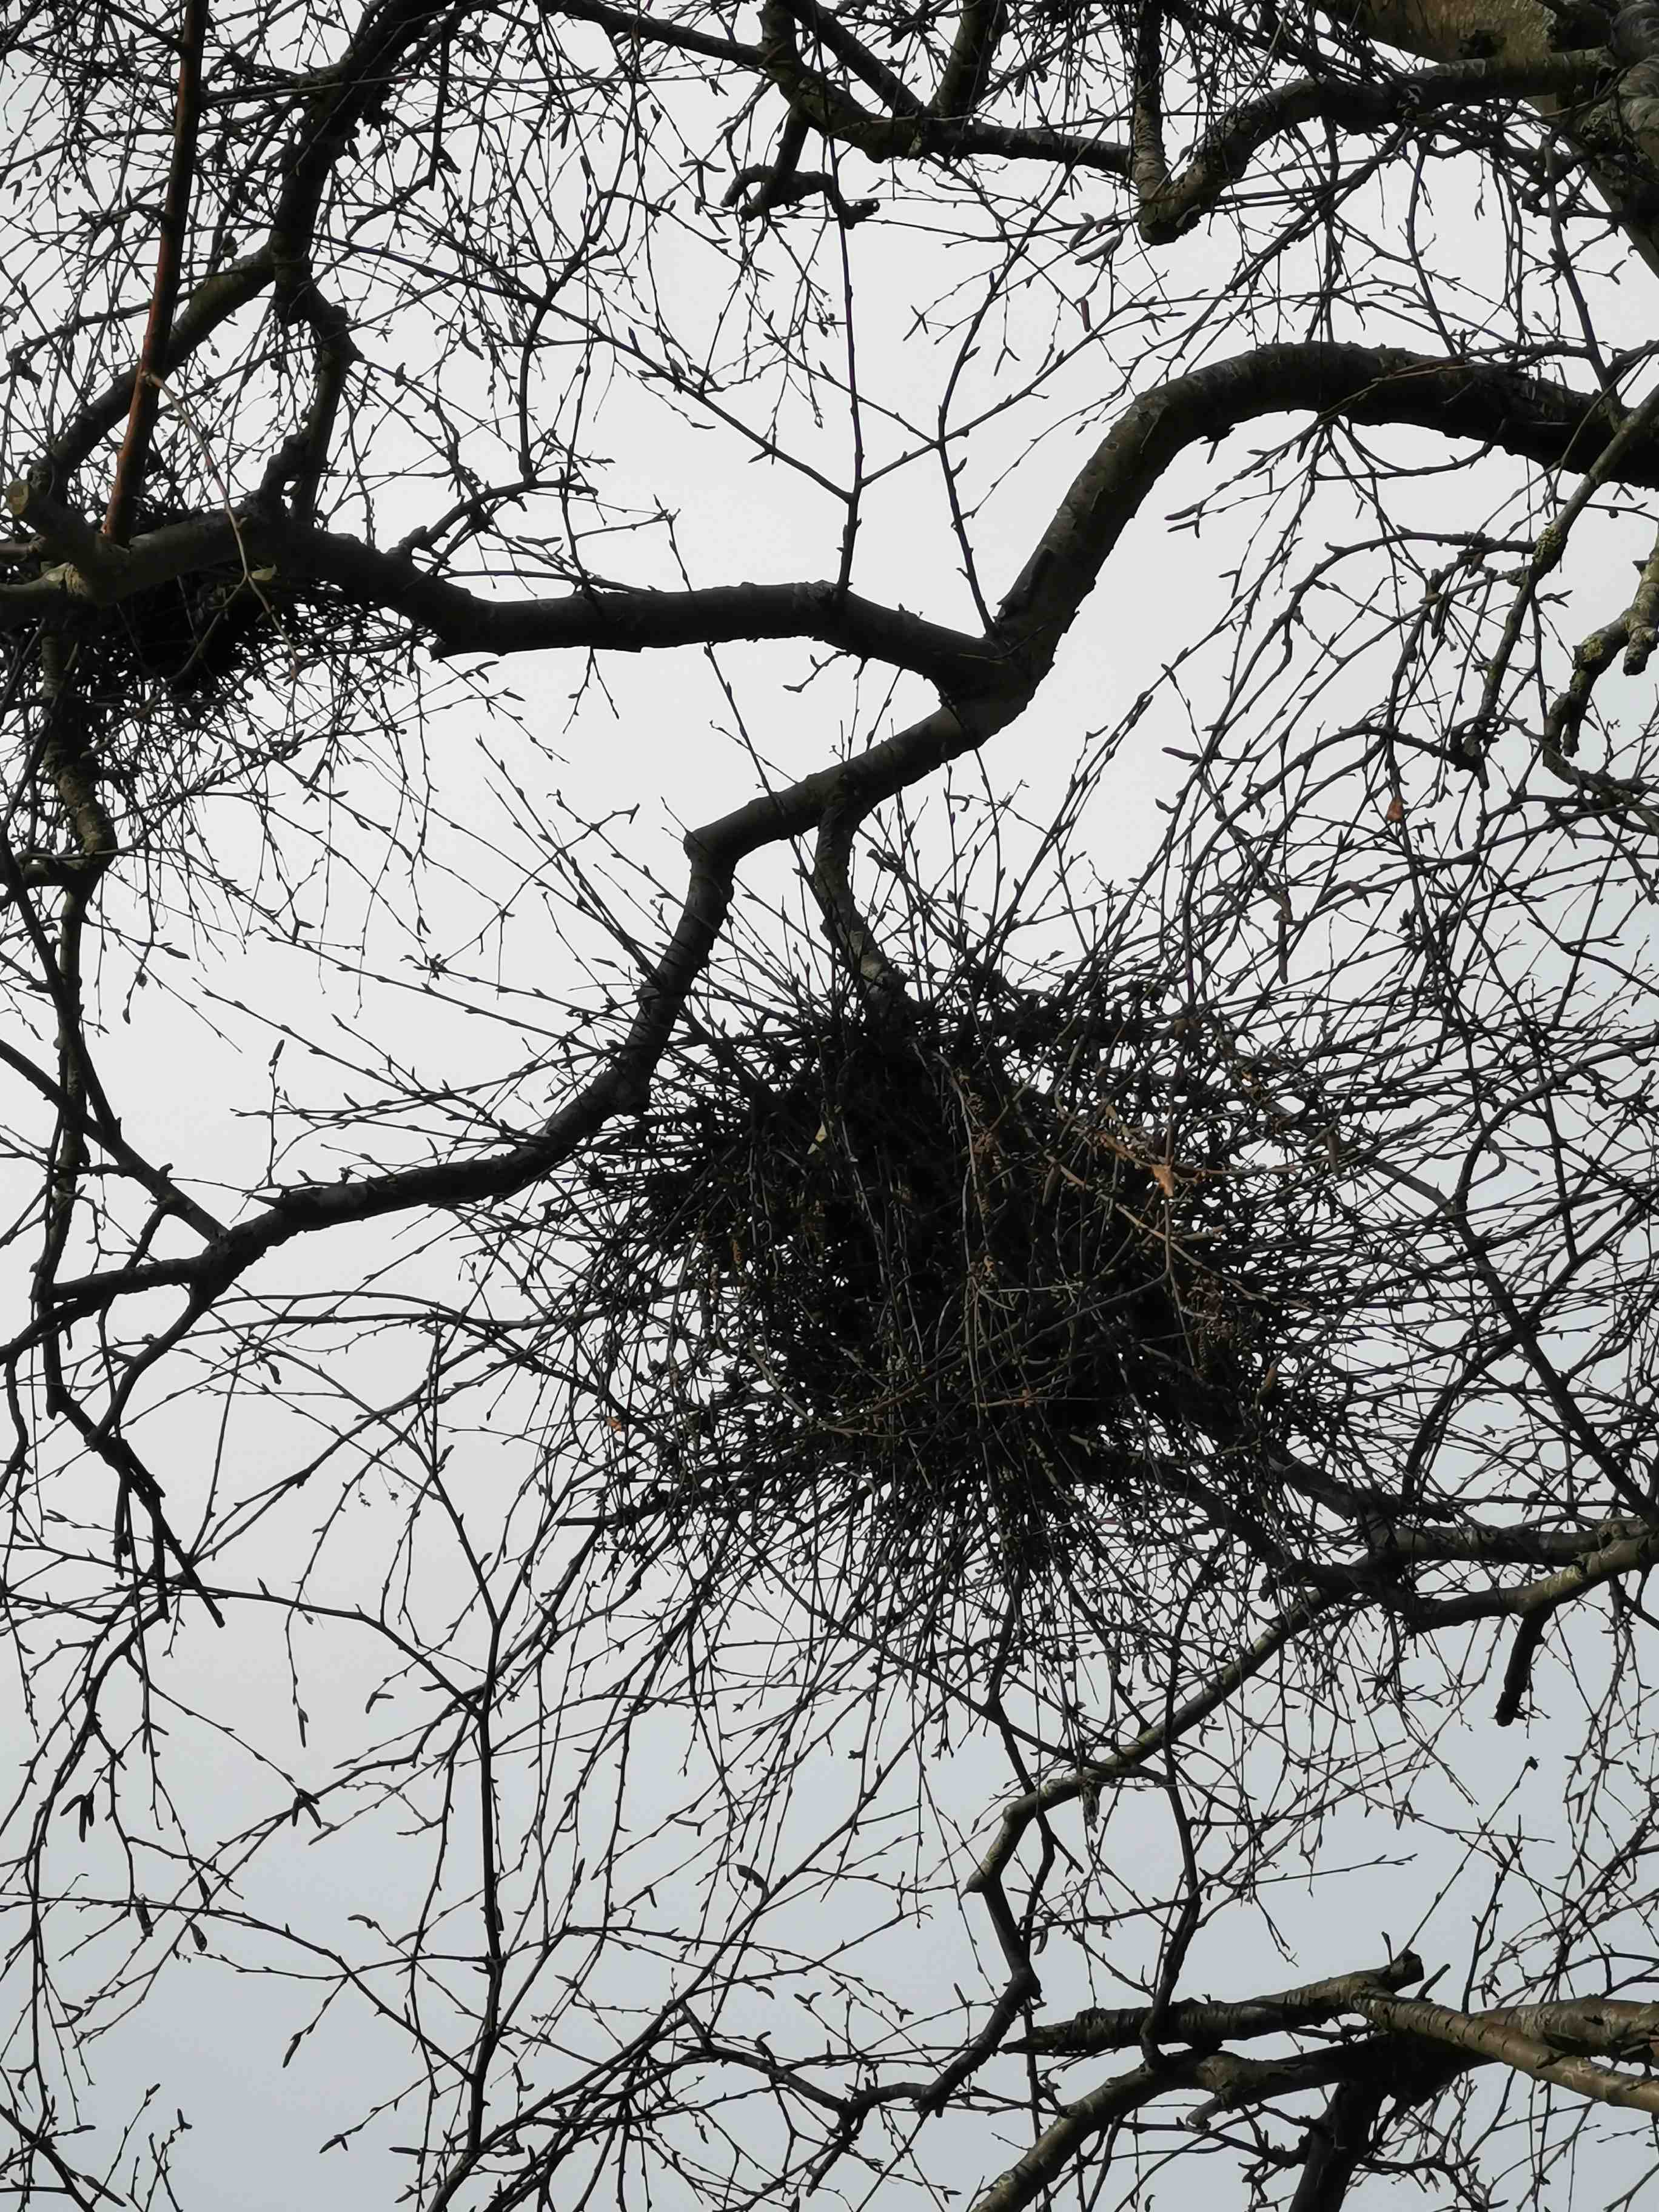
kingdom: Fungi
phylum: Ascomycota
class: Taphrinomycetes
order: Taphrinales
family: Taphrinaceae
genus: Taphrina
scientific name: Taphrina betulina
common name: hekse-sækdug
